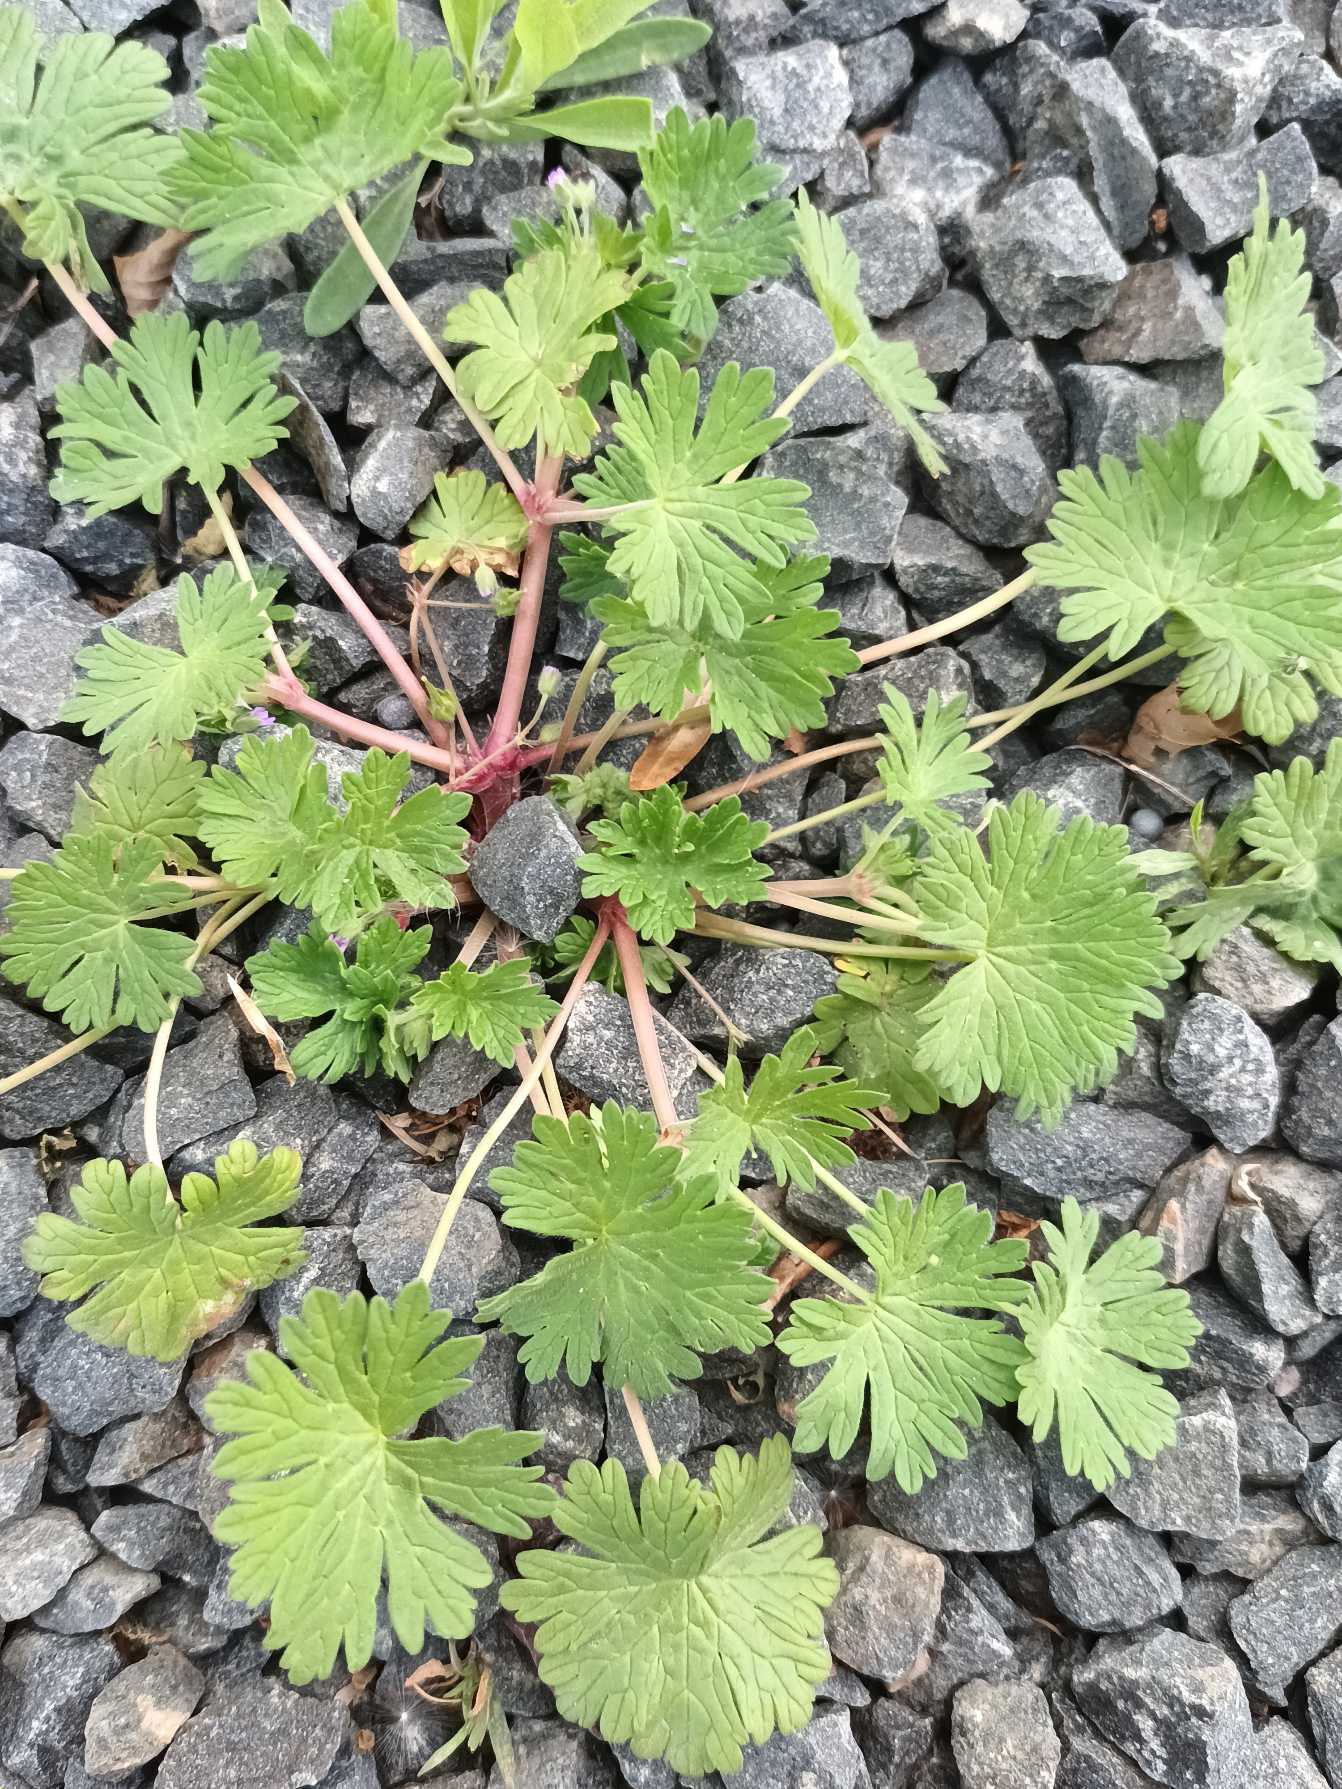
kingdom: Plantae
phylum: Tracheophyta
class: Magnoliopsida
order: Geraniales
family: Geraniaceae
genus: Geranium
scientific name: Geranium pusillum
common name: Liden storkenæb
